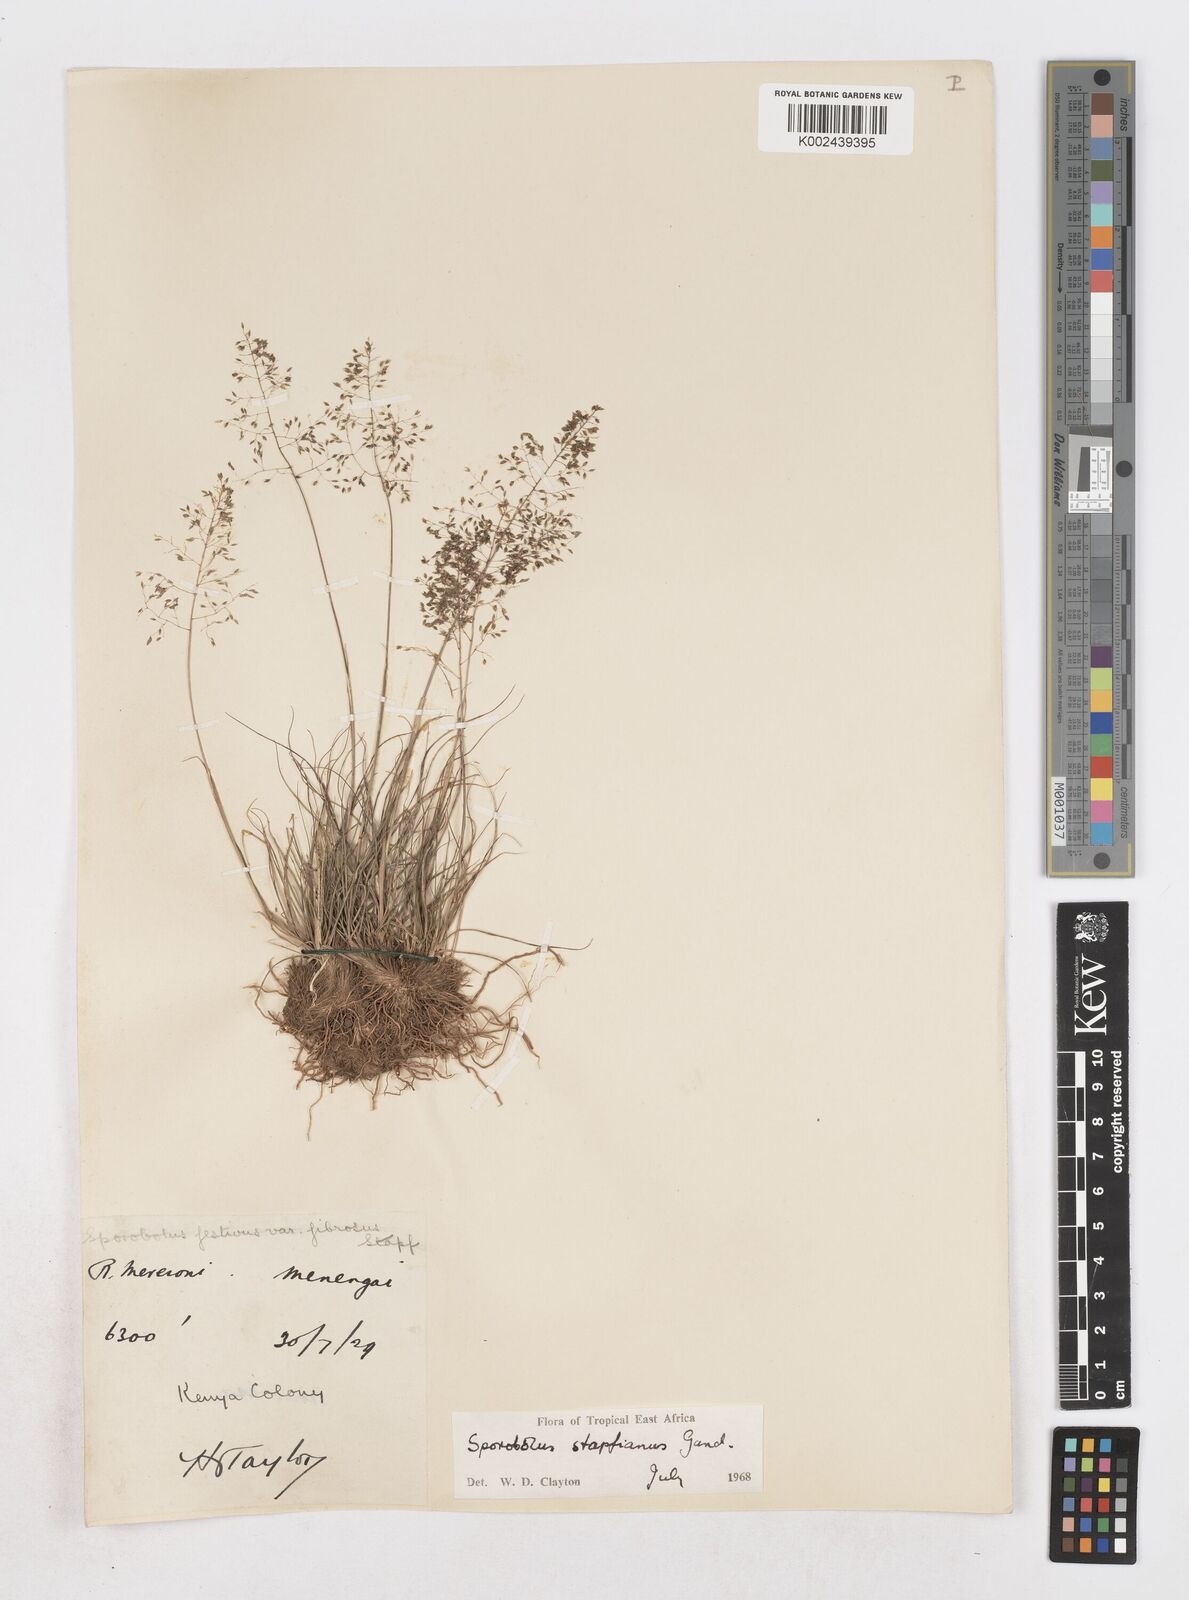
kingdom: Plantae
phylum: Tracheophyta
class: Liliopsida
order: Poales
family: Poaceae
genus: Sporobolus
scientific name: Sporobolus stapfianus
